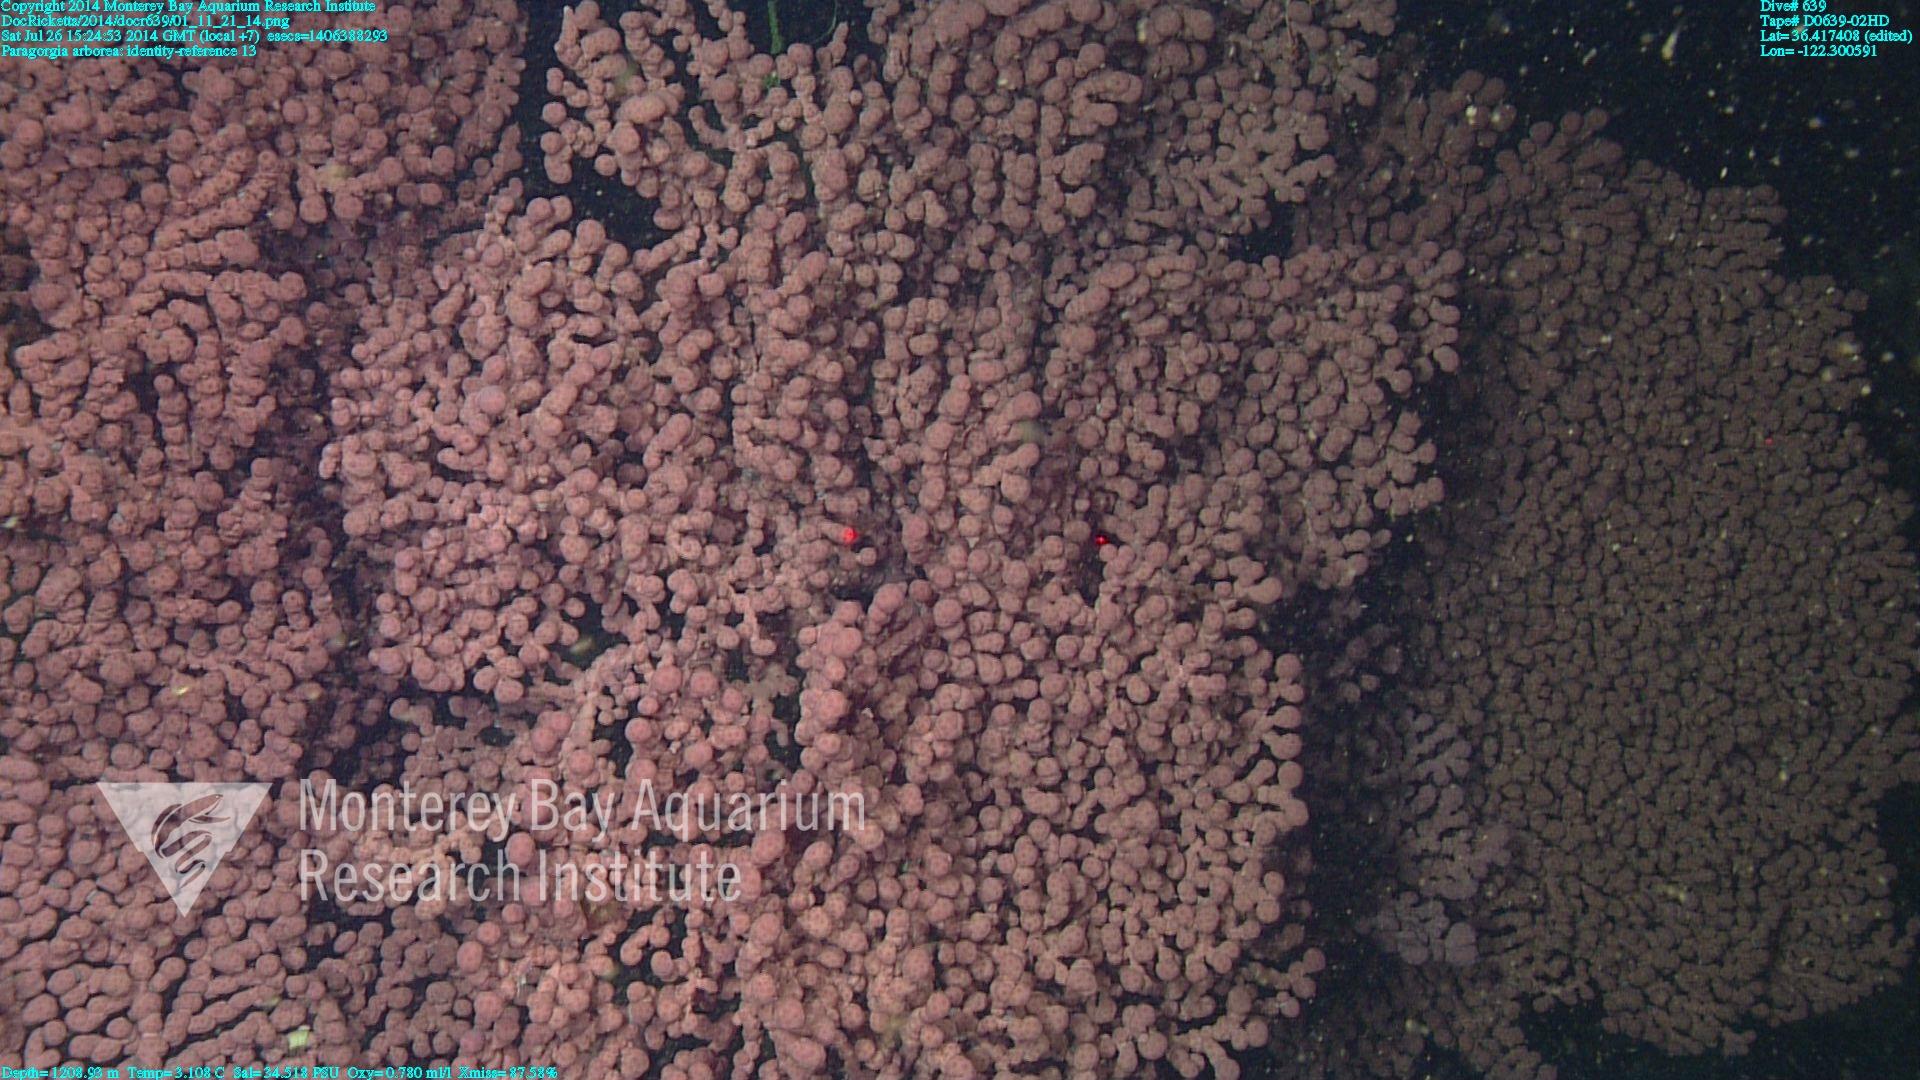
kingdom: Animalia
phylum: Cnidaria
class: Anthozoa
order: Scleralcyonacea
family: Coralliidae
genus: Paragorgia
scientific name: Paragorgia arborea
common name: Bubble gum coral
